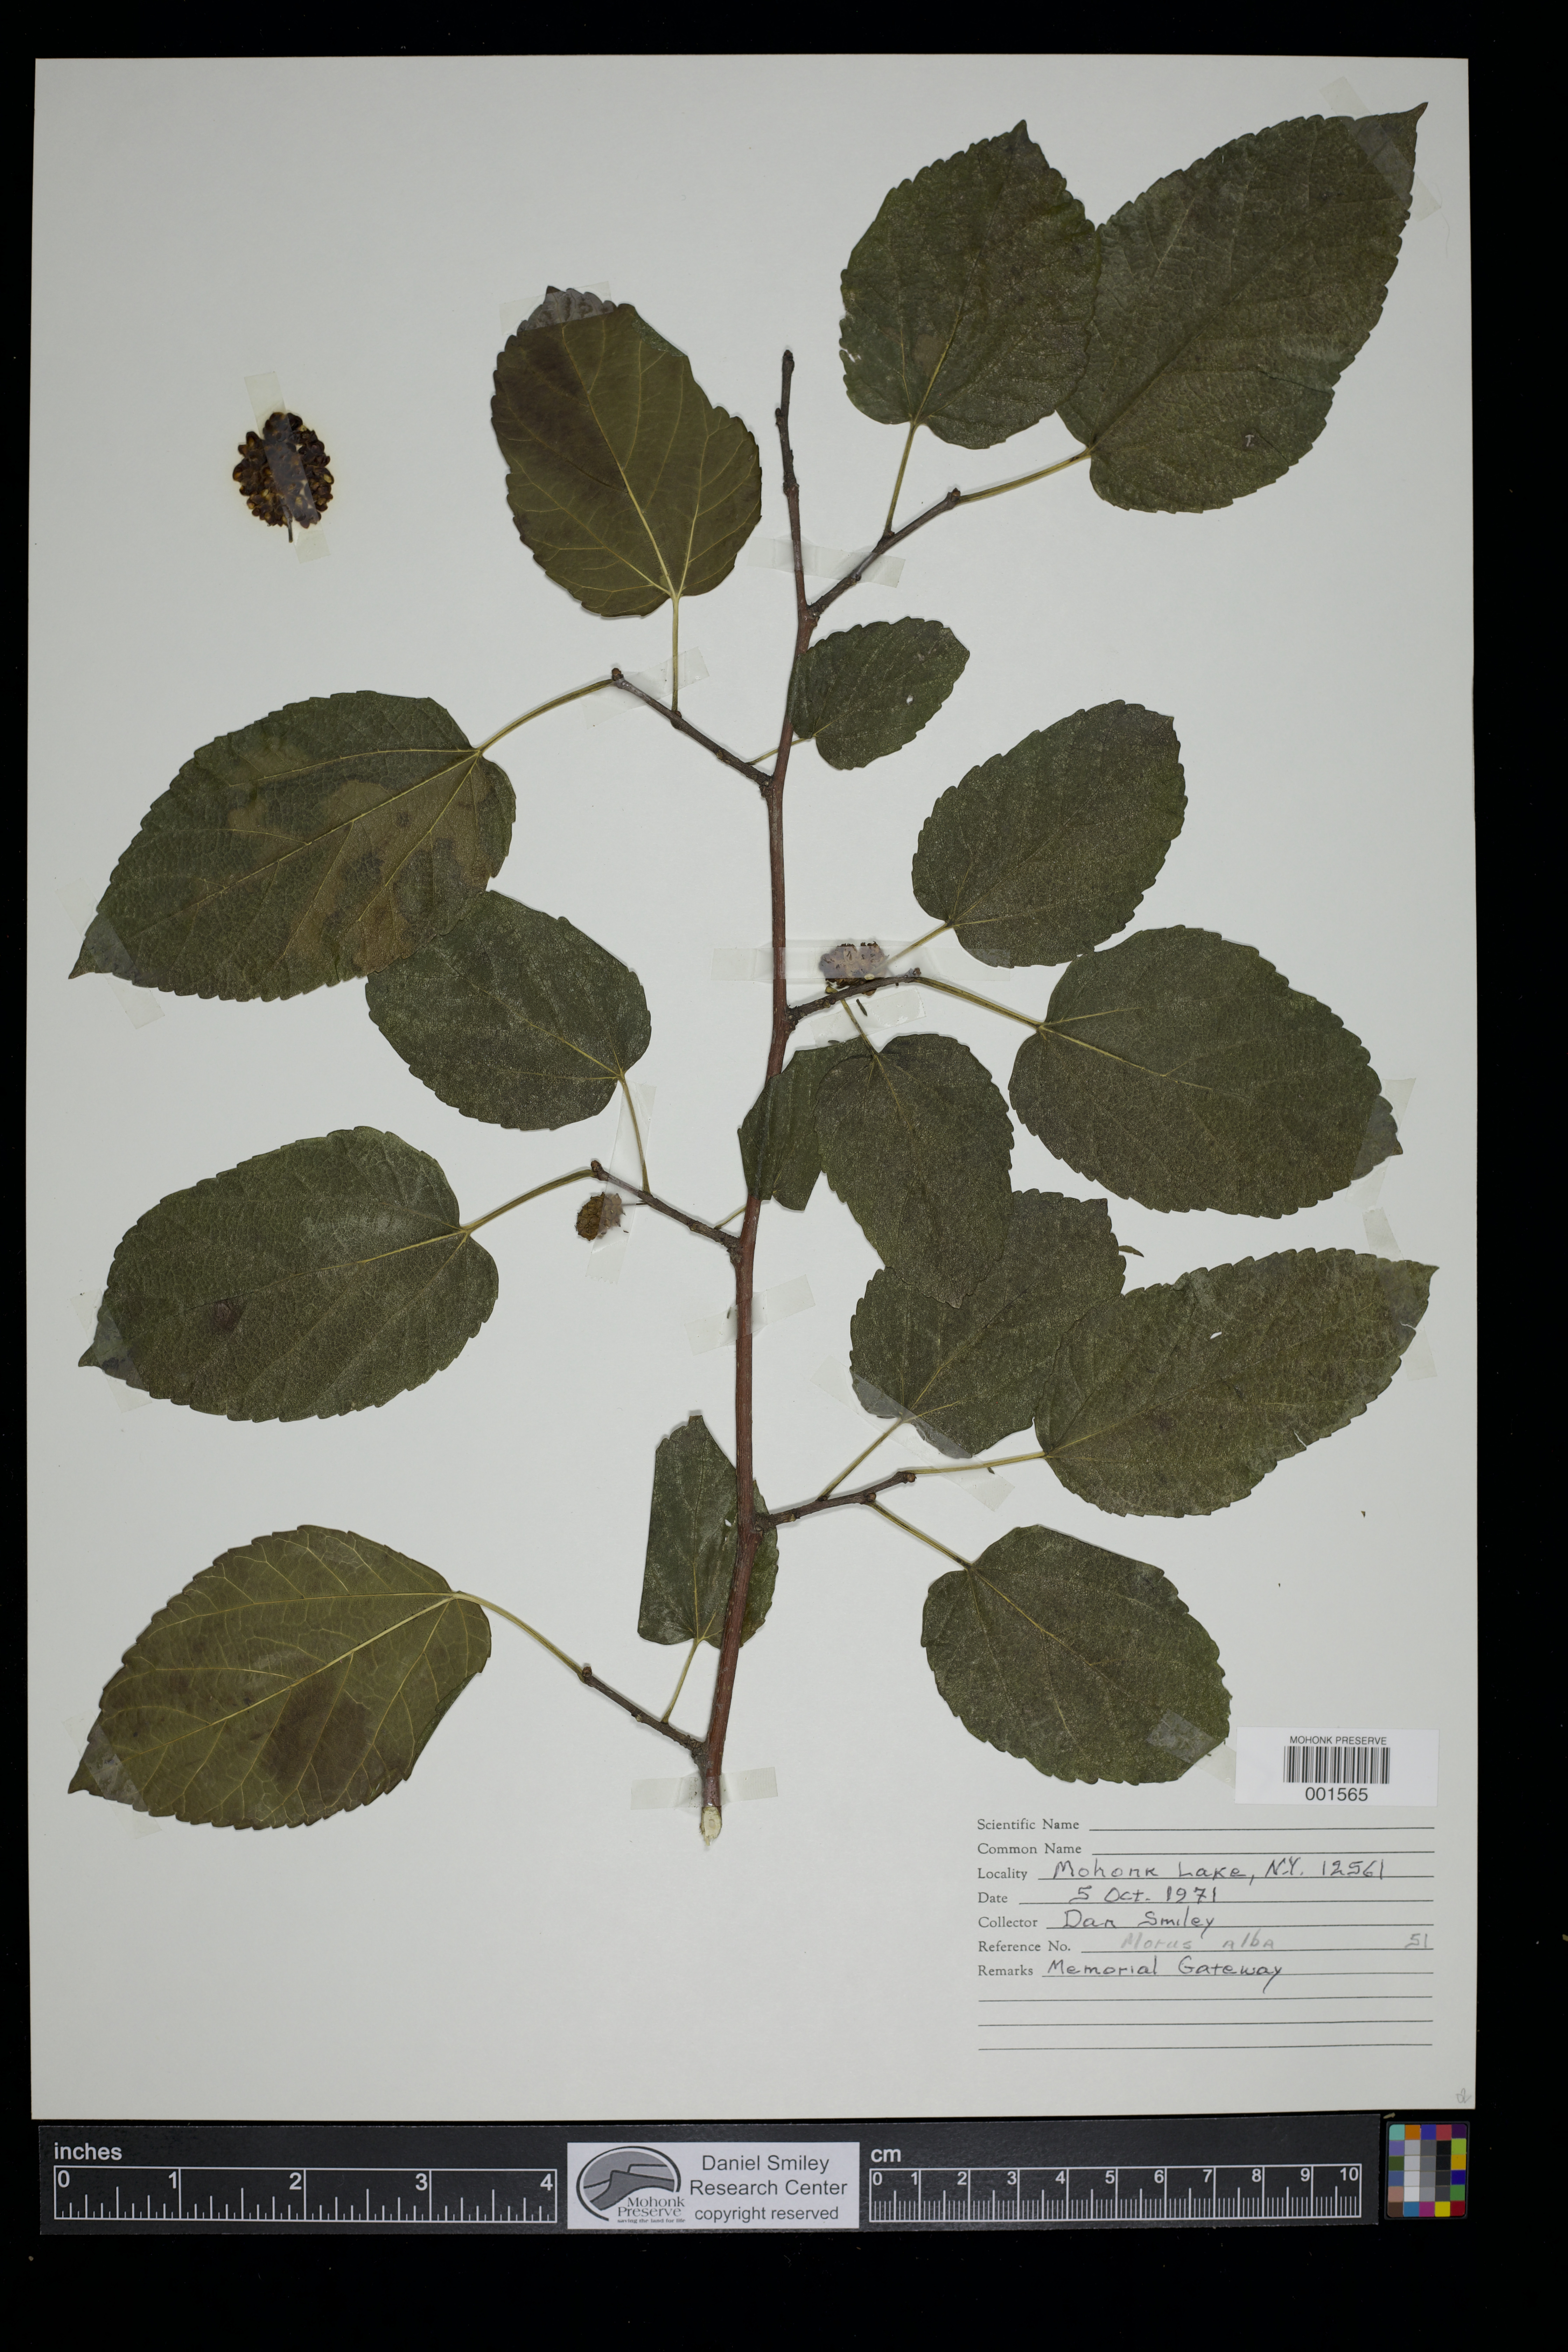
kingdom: Plantae
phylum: Tracheophyta
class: Magnoliopsida
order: Rosales
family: Moraceae
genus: Morus
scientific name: Morus alba
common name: White mulberry
